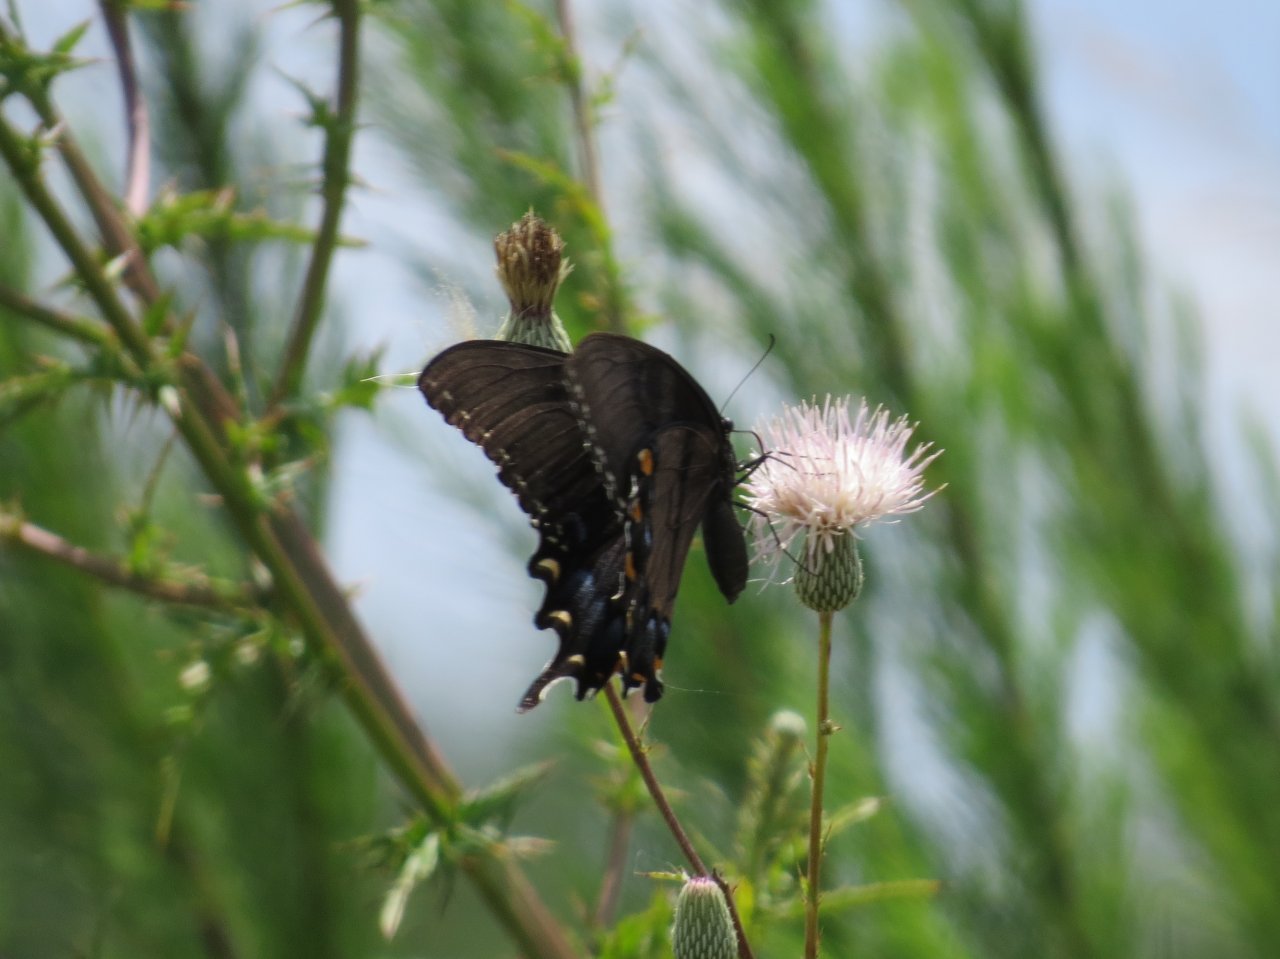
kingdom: Animalia
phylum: Arthropoda
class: Insecta
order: Lepidoptera
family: Papilionidae
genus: Pterourus
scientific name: Pterourus glaucus
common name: Eastern Tiger Swallowtail
